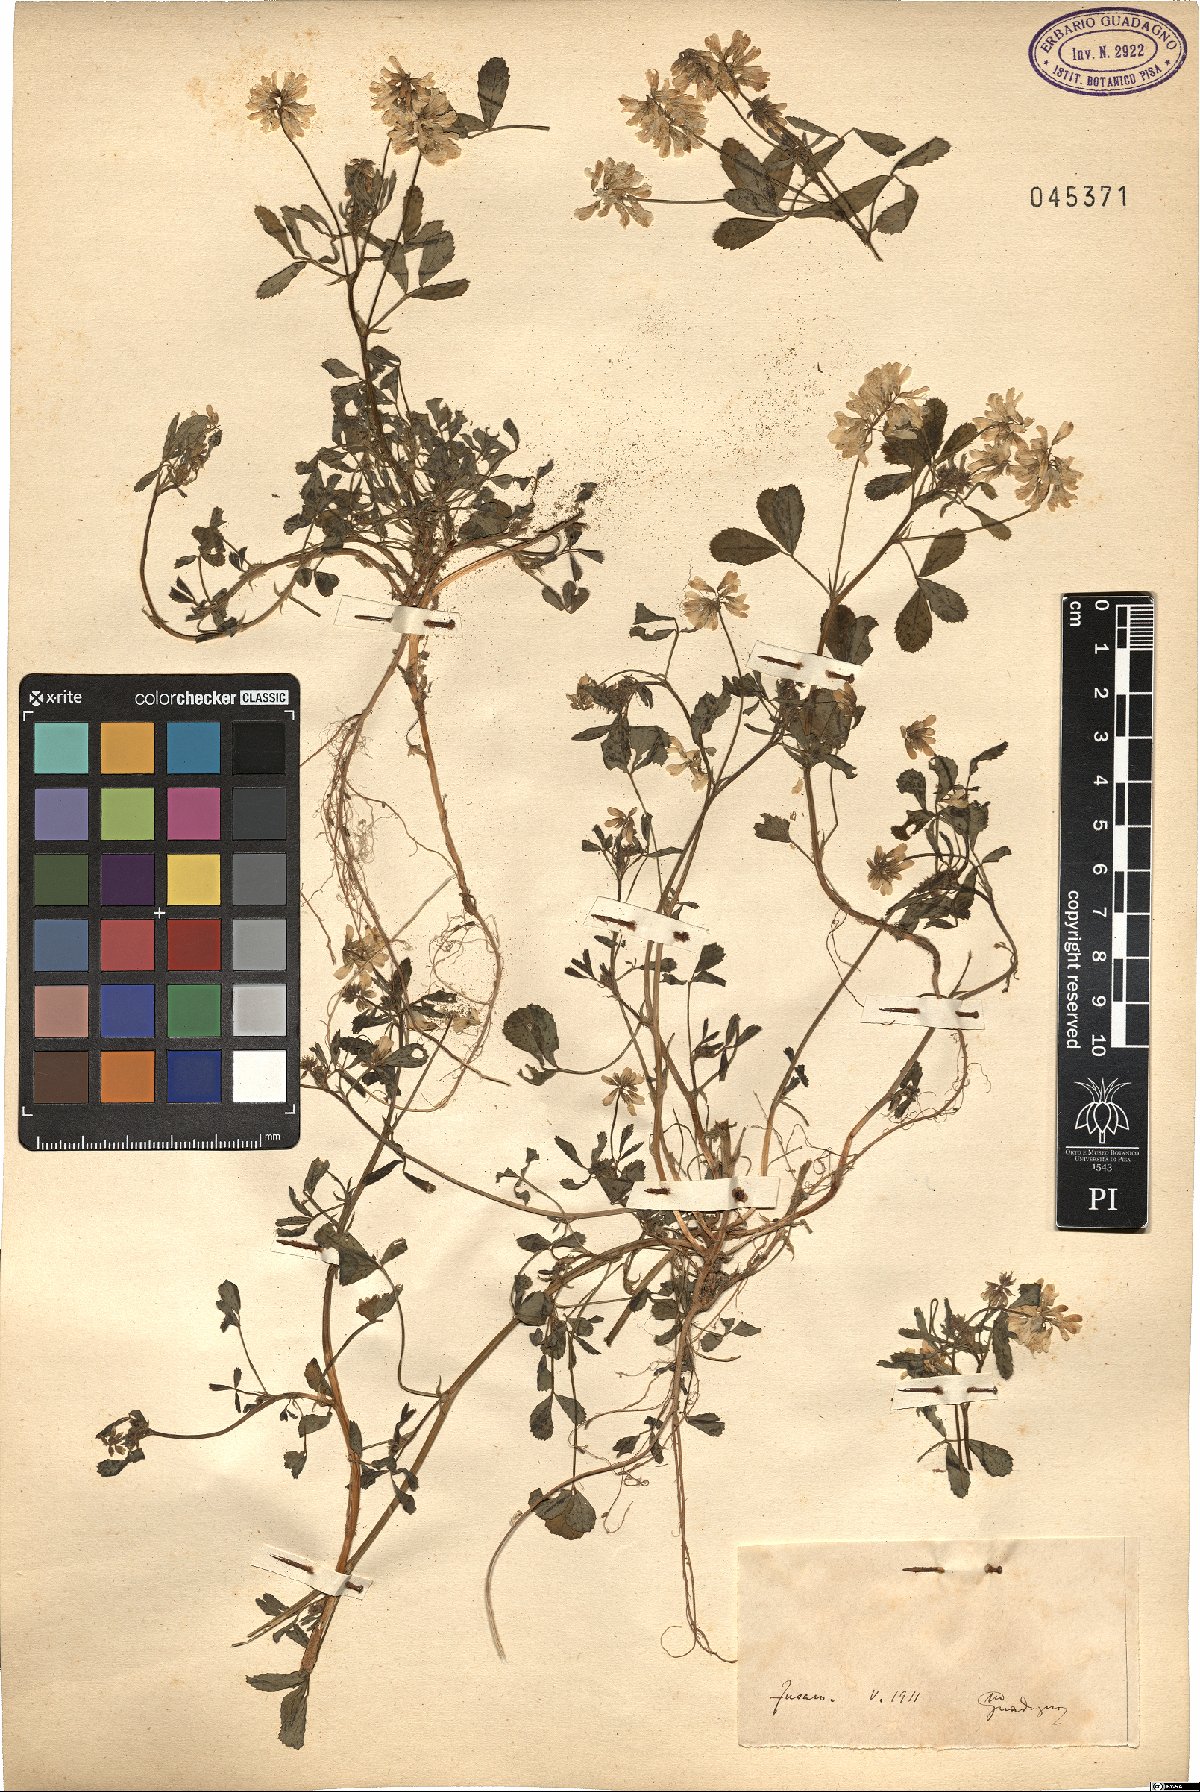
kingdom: Plantae
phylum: Tracheophyta
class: Magnoliopsida
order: Fabales
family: Fabaceae
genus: Trigonella
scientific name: Trigonella
